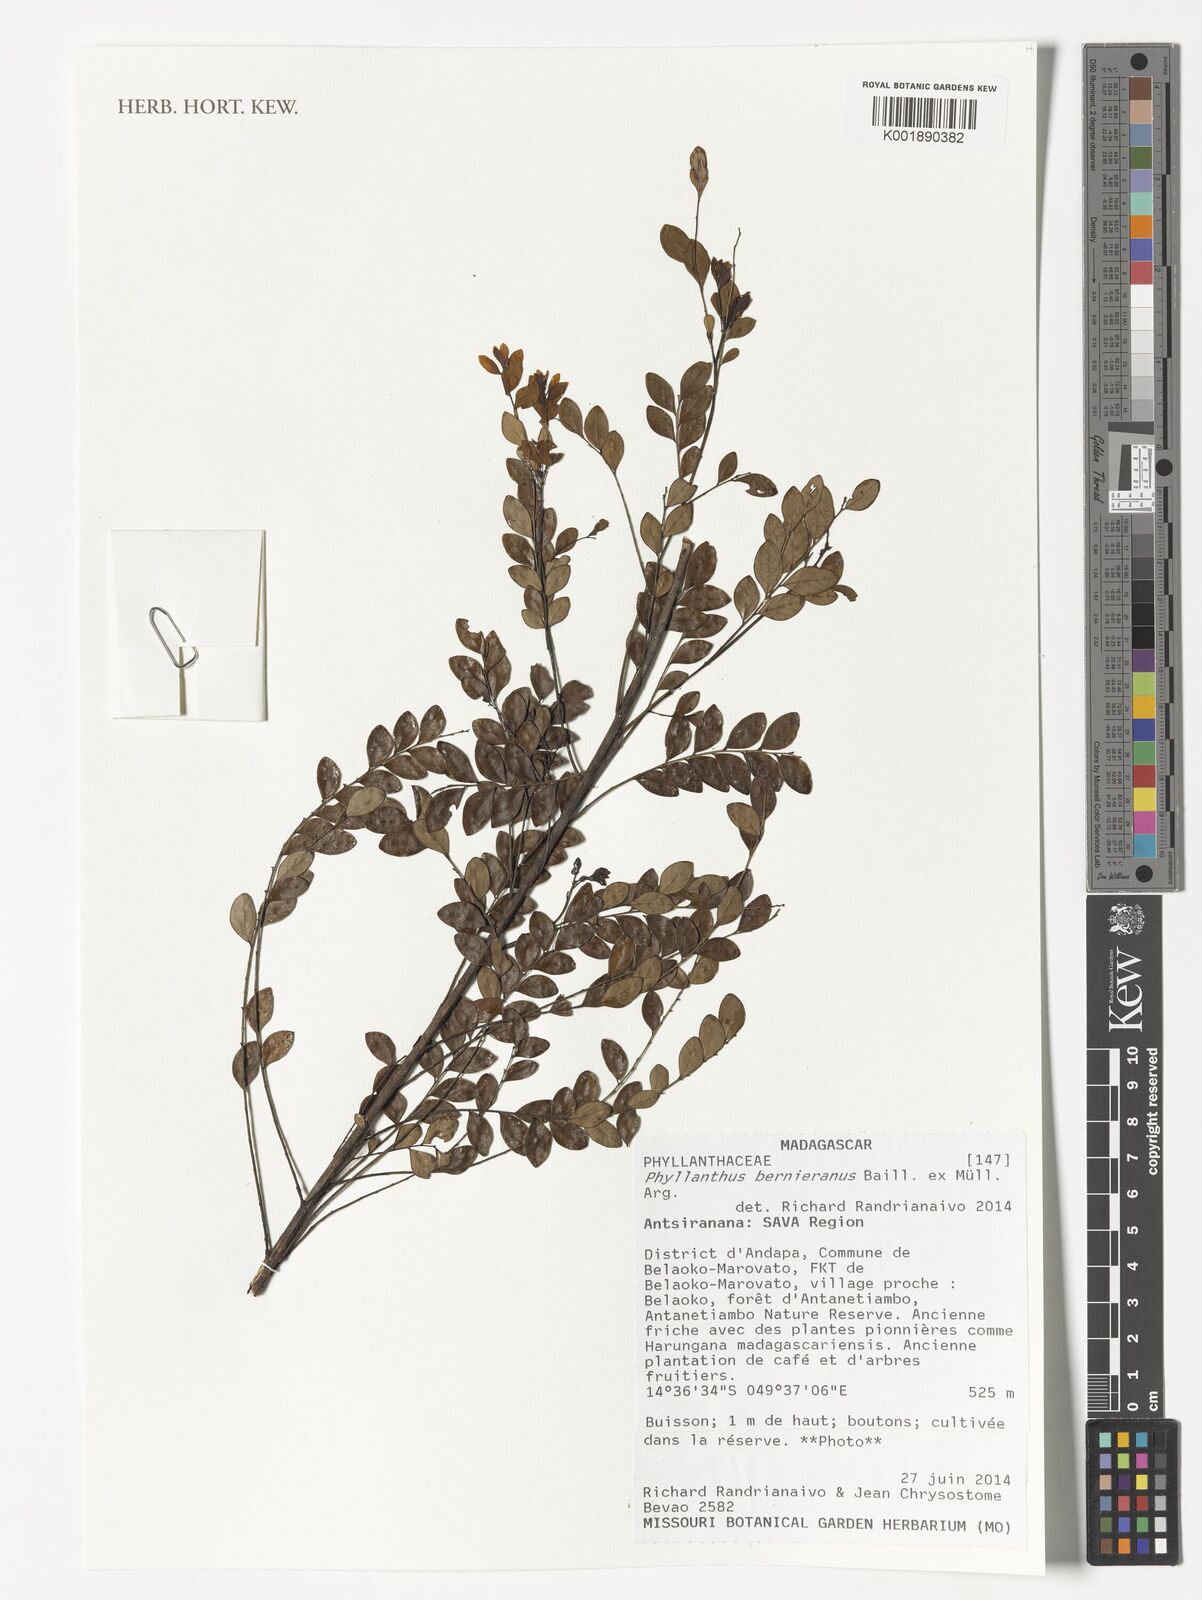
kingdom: Plantae
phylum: Tracheophyta
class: Magnoliopsida
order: Malpighiales
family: Phyllanthaceae
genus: Phyllanthus
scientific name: Phyllanthus bernierianus
